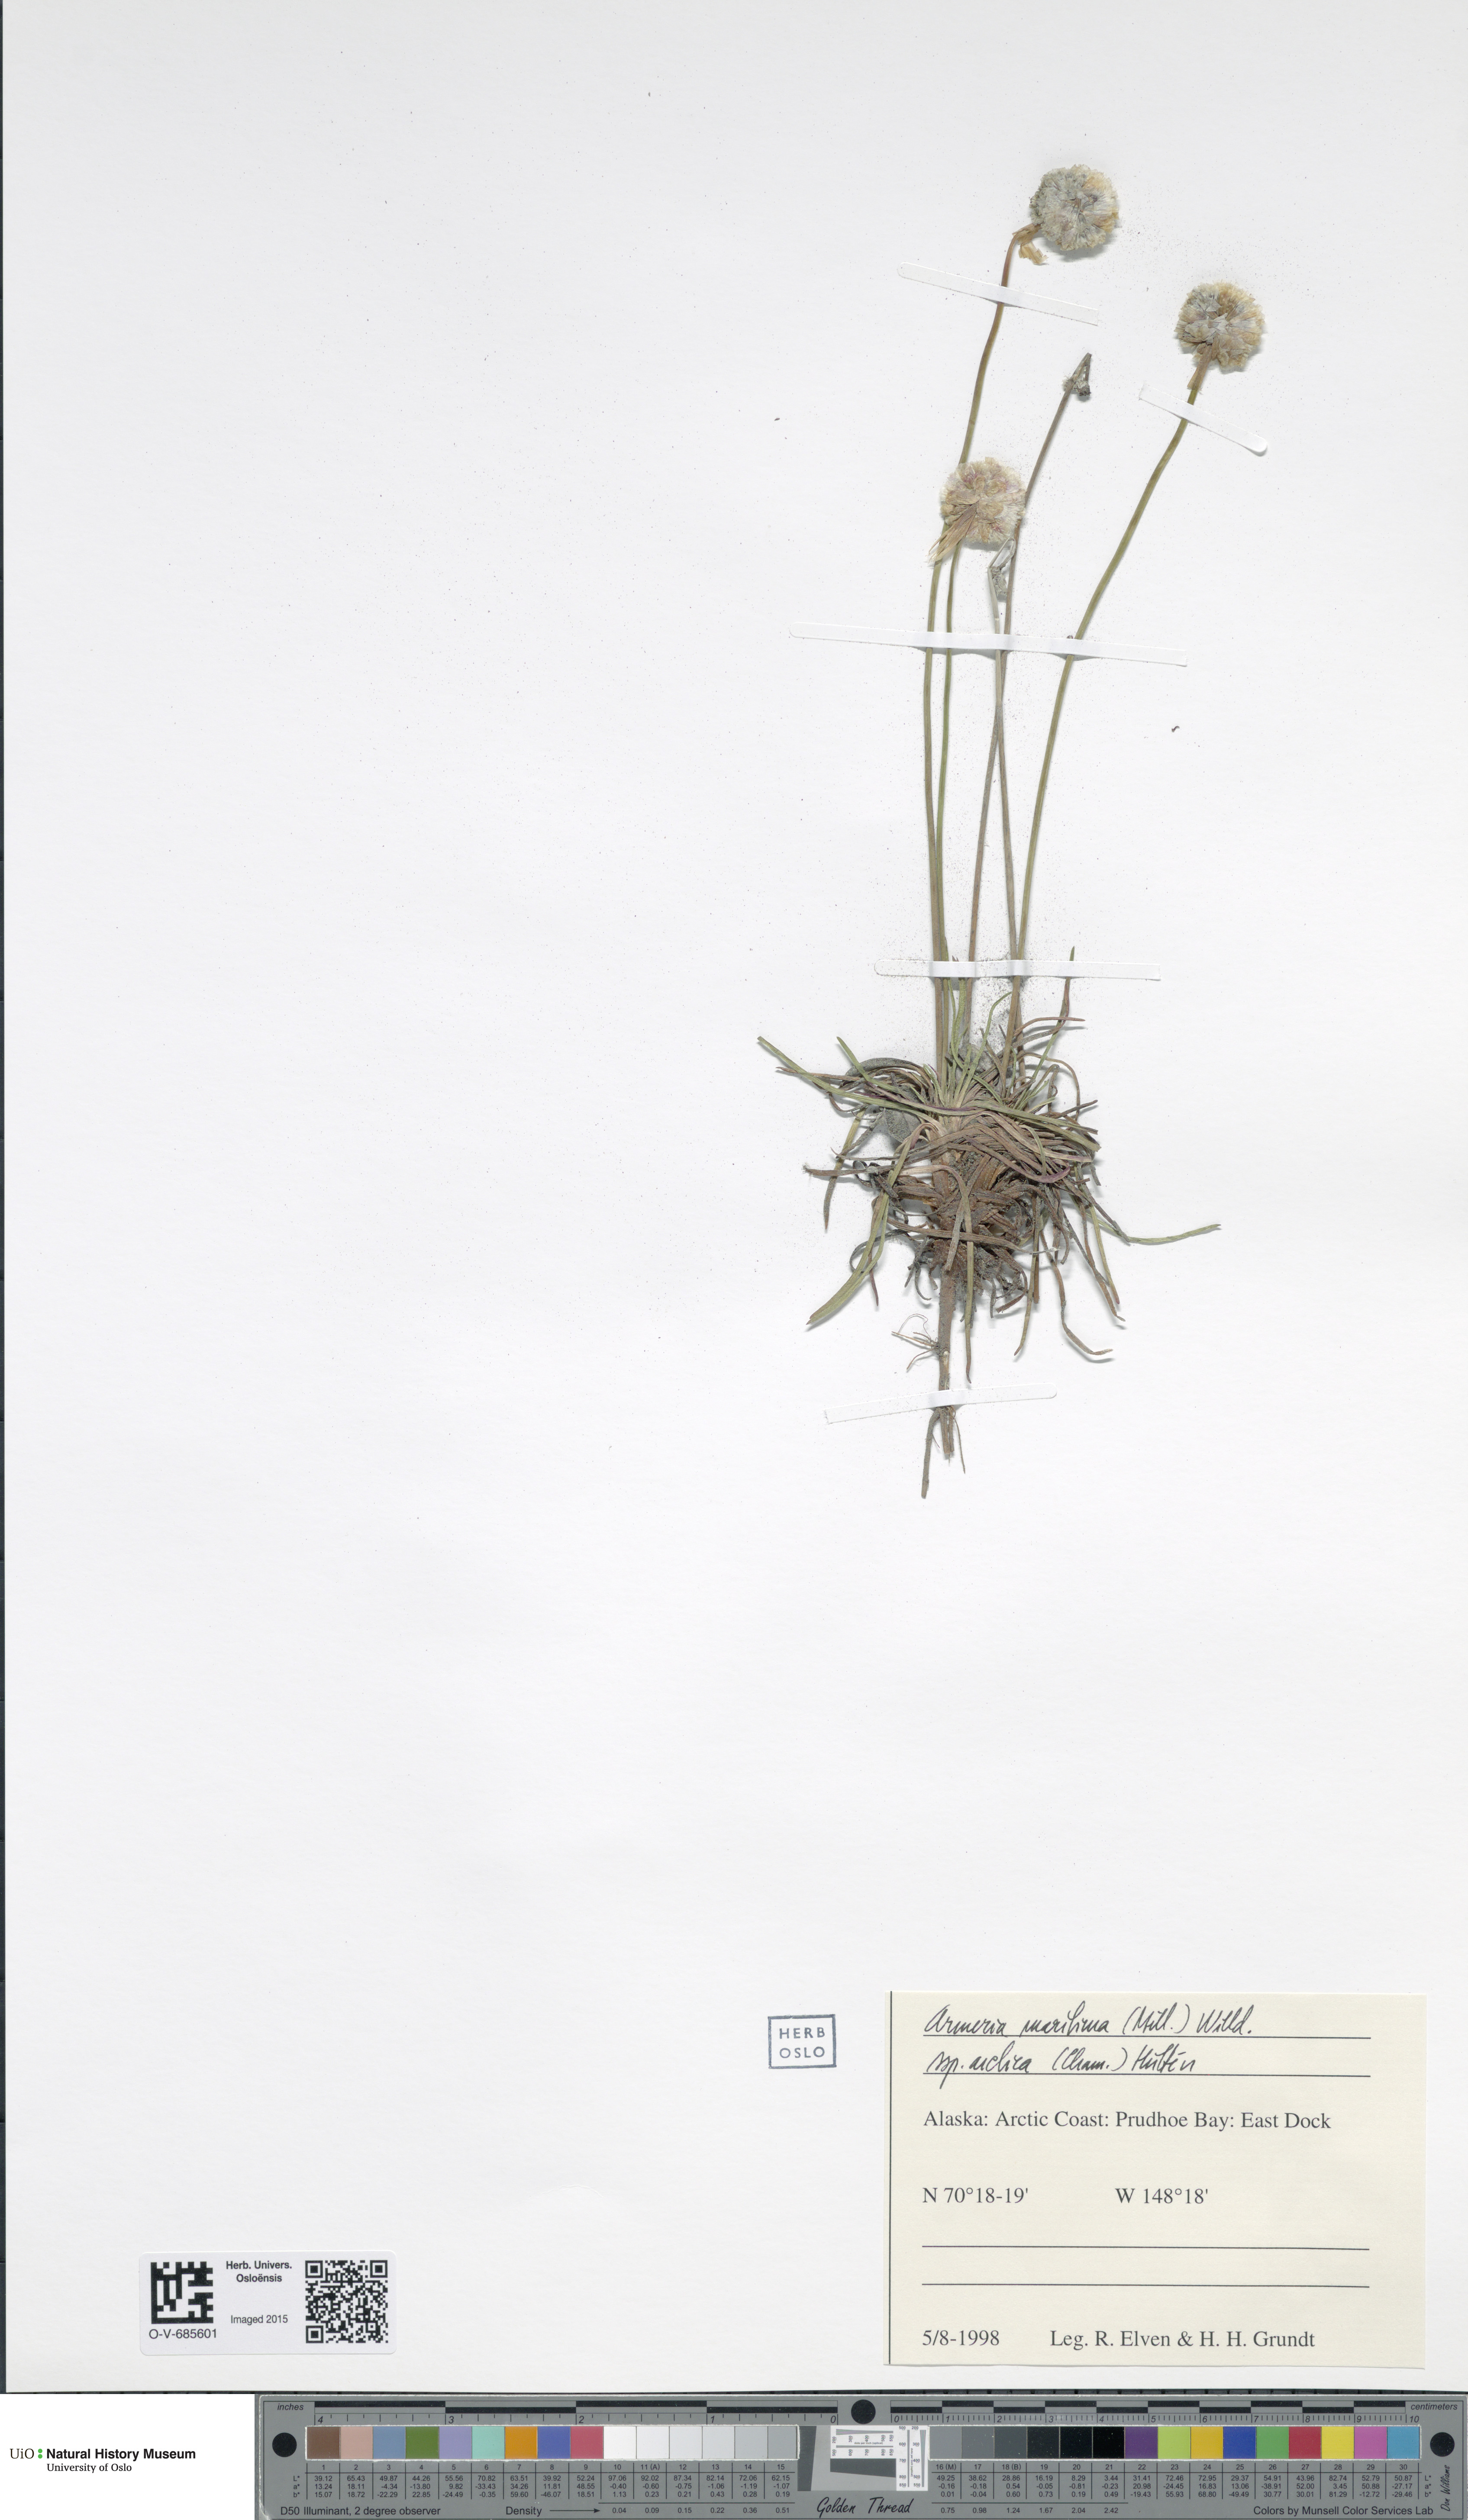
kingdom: Plantae
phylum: Tracheophyta
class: Magnoliopsida
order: Caryophyllales
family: Plumbaginaceae
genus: Armeria
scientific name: Armeria maritima
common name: Thrift
